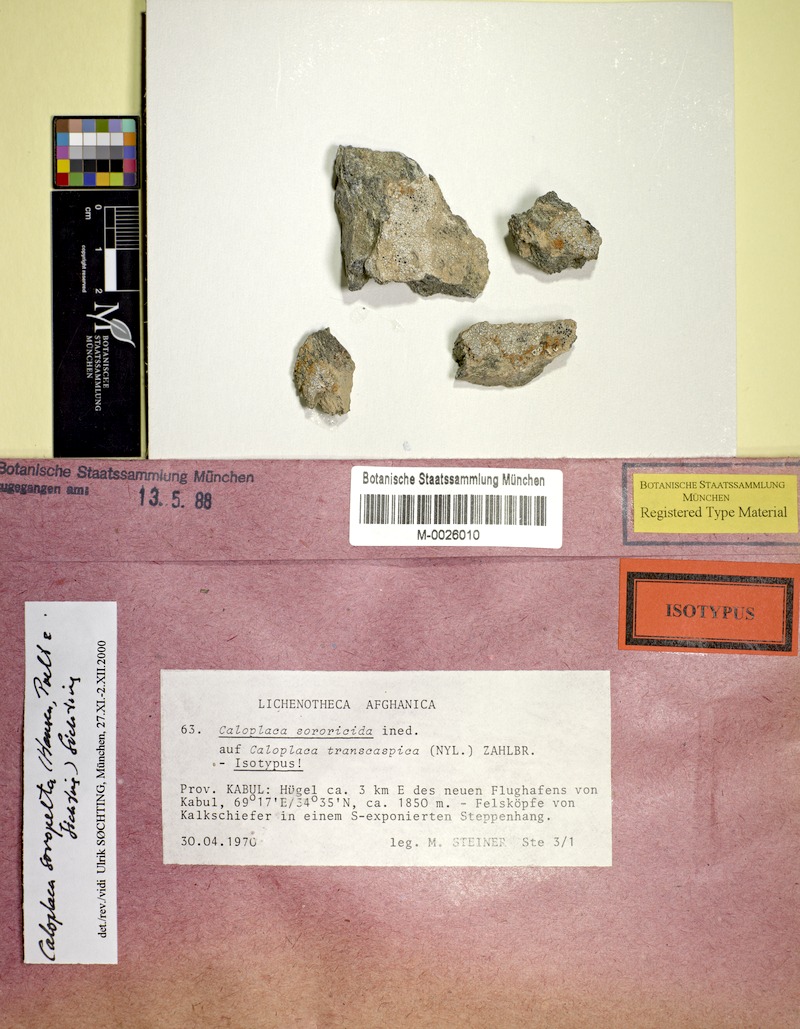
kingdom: Fungi
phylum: Ascomycota
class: Lecanoromycetes
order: Teloschistales
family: Teloschistaceae
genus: Pyrenodesmia
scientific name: Pyrenodesmia transcaspica
